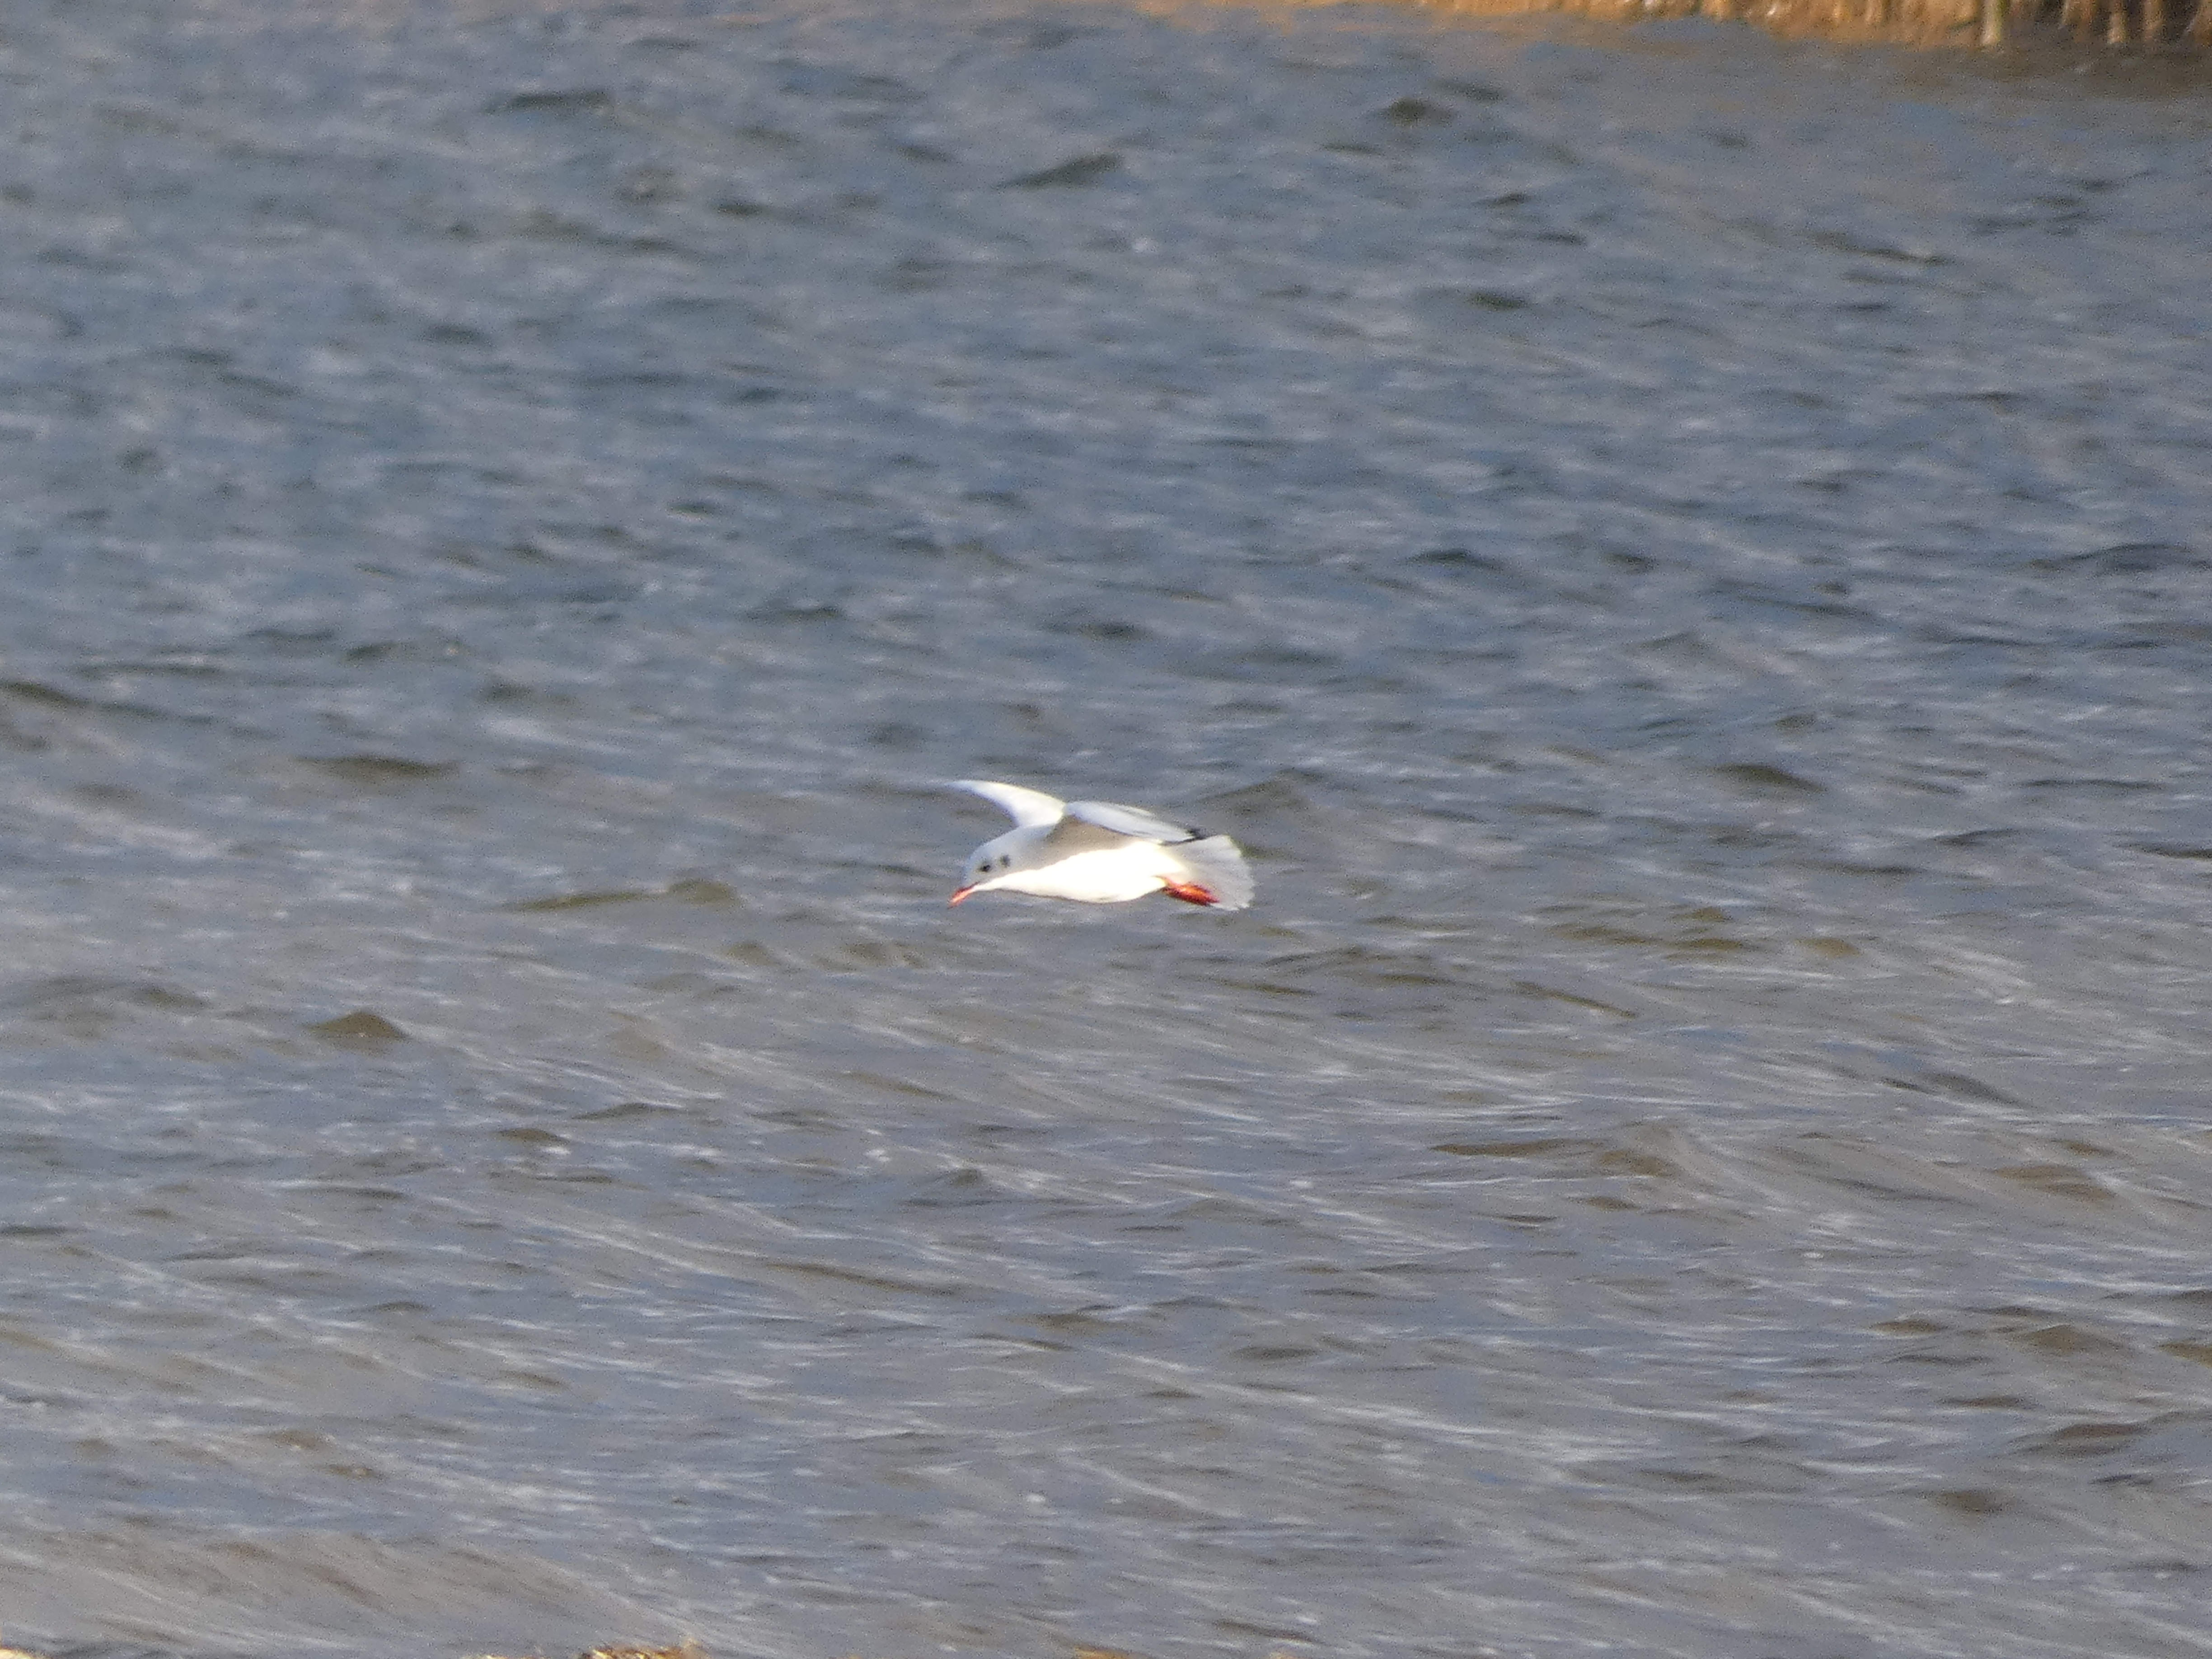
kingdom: Animalia
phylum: Chordata
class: Aves
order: Charadriiformes
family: Laridae
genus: Chroicocephalus
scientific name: Chroicocephalus ridibundus
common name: Hættemåge
